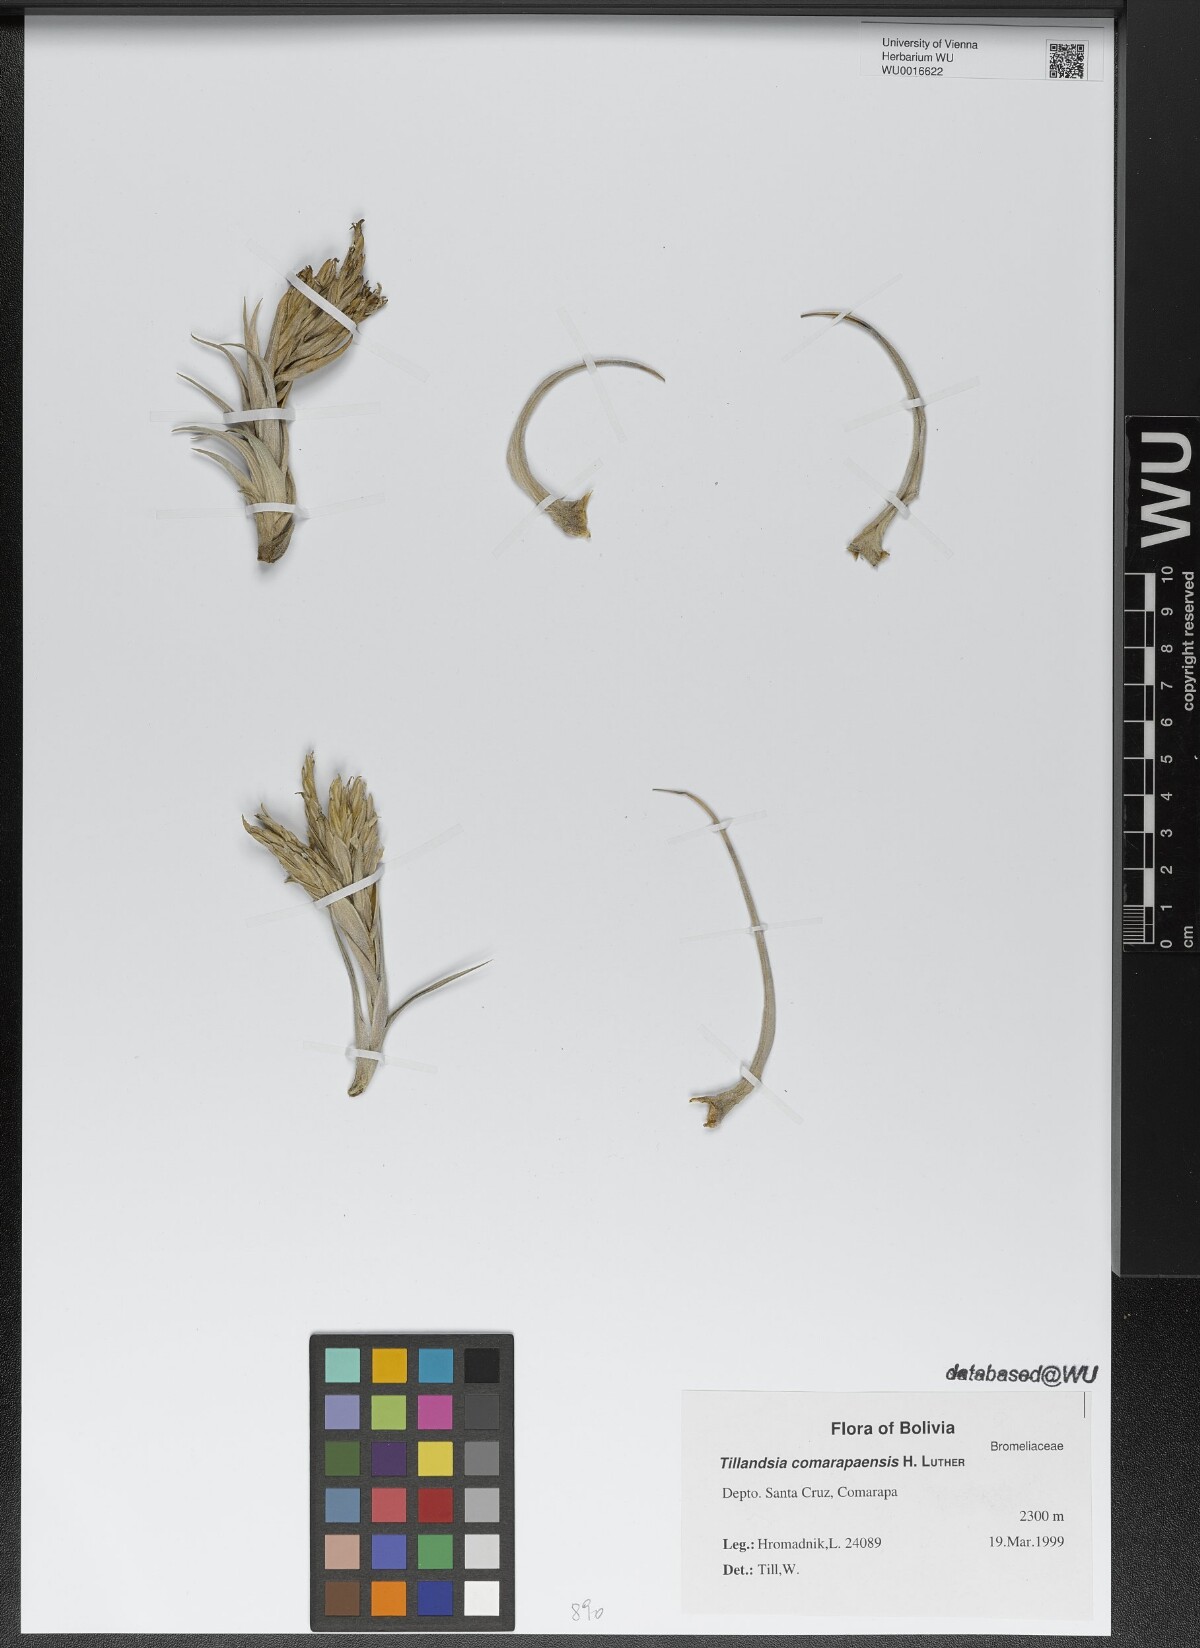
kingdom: Plantae
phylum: Tracheophyta
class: Liliopsida
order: Poales
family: Bromeliaceae
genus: Tillandsia
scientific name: Tillandsia comarapaensis
